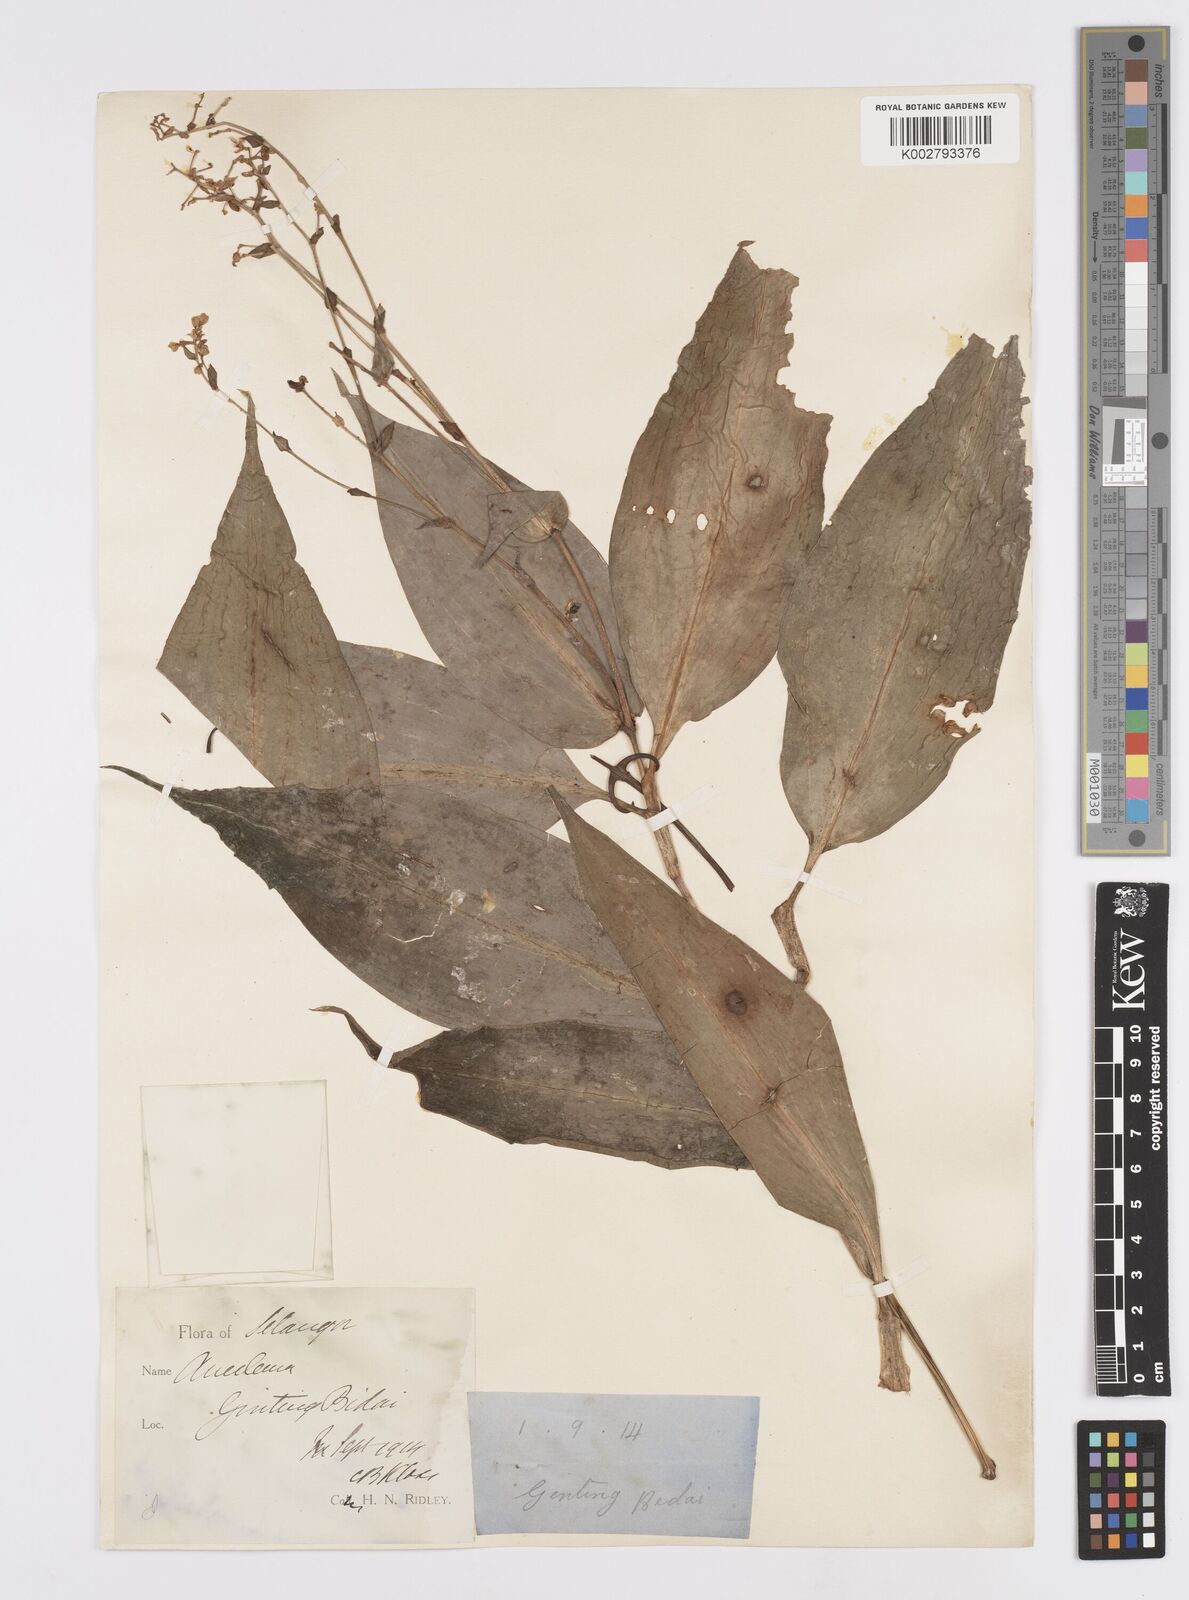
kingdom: Plantae
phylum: Tracheophyta
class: Liliopsida
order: Commelinales
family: Commelinaceae
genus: Murdannia
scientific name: Murdannia japonica
